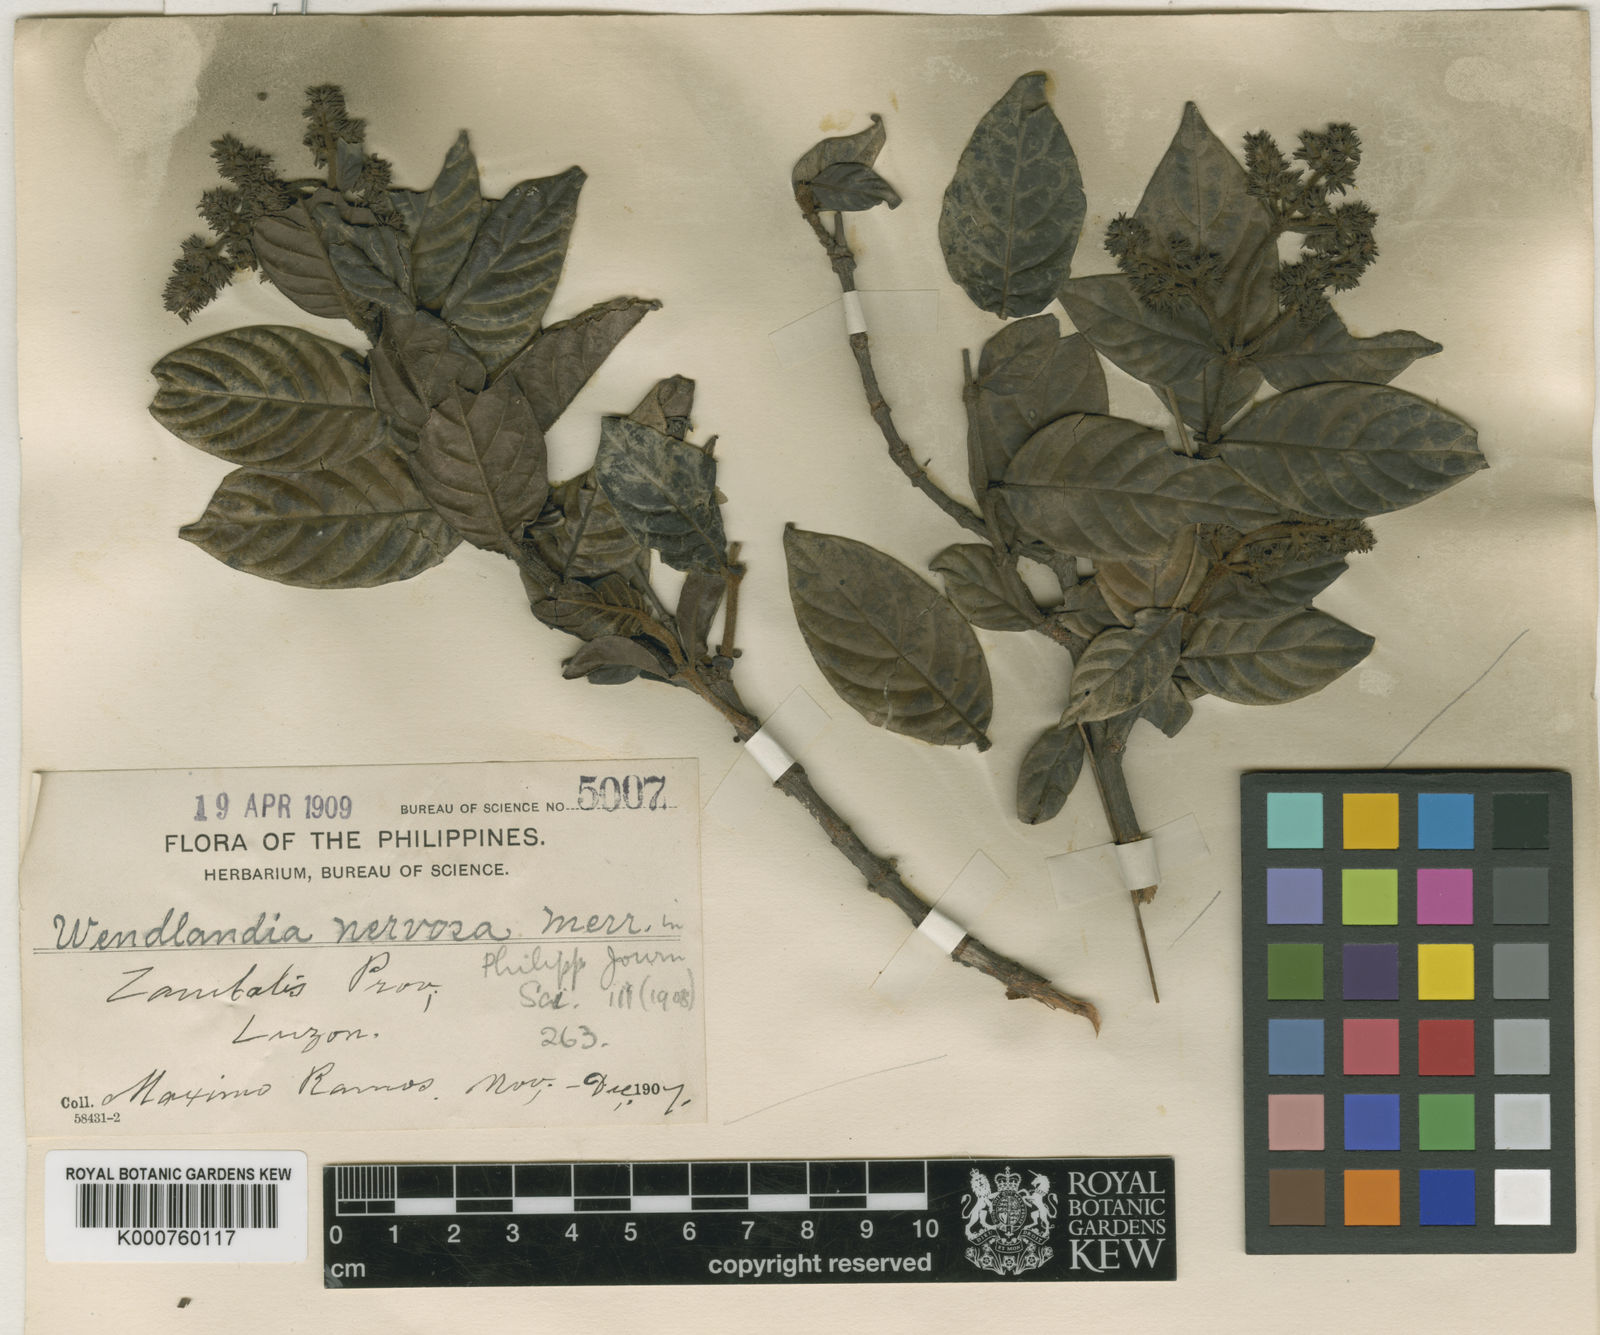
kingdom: Plantae
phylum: Tracheophyta
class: Magnoliopsida
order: Gentianales
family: Rubiaceae
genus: Wendlandia
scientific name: Wendlandia nervosa
